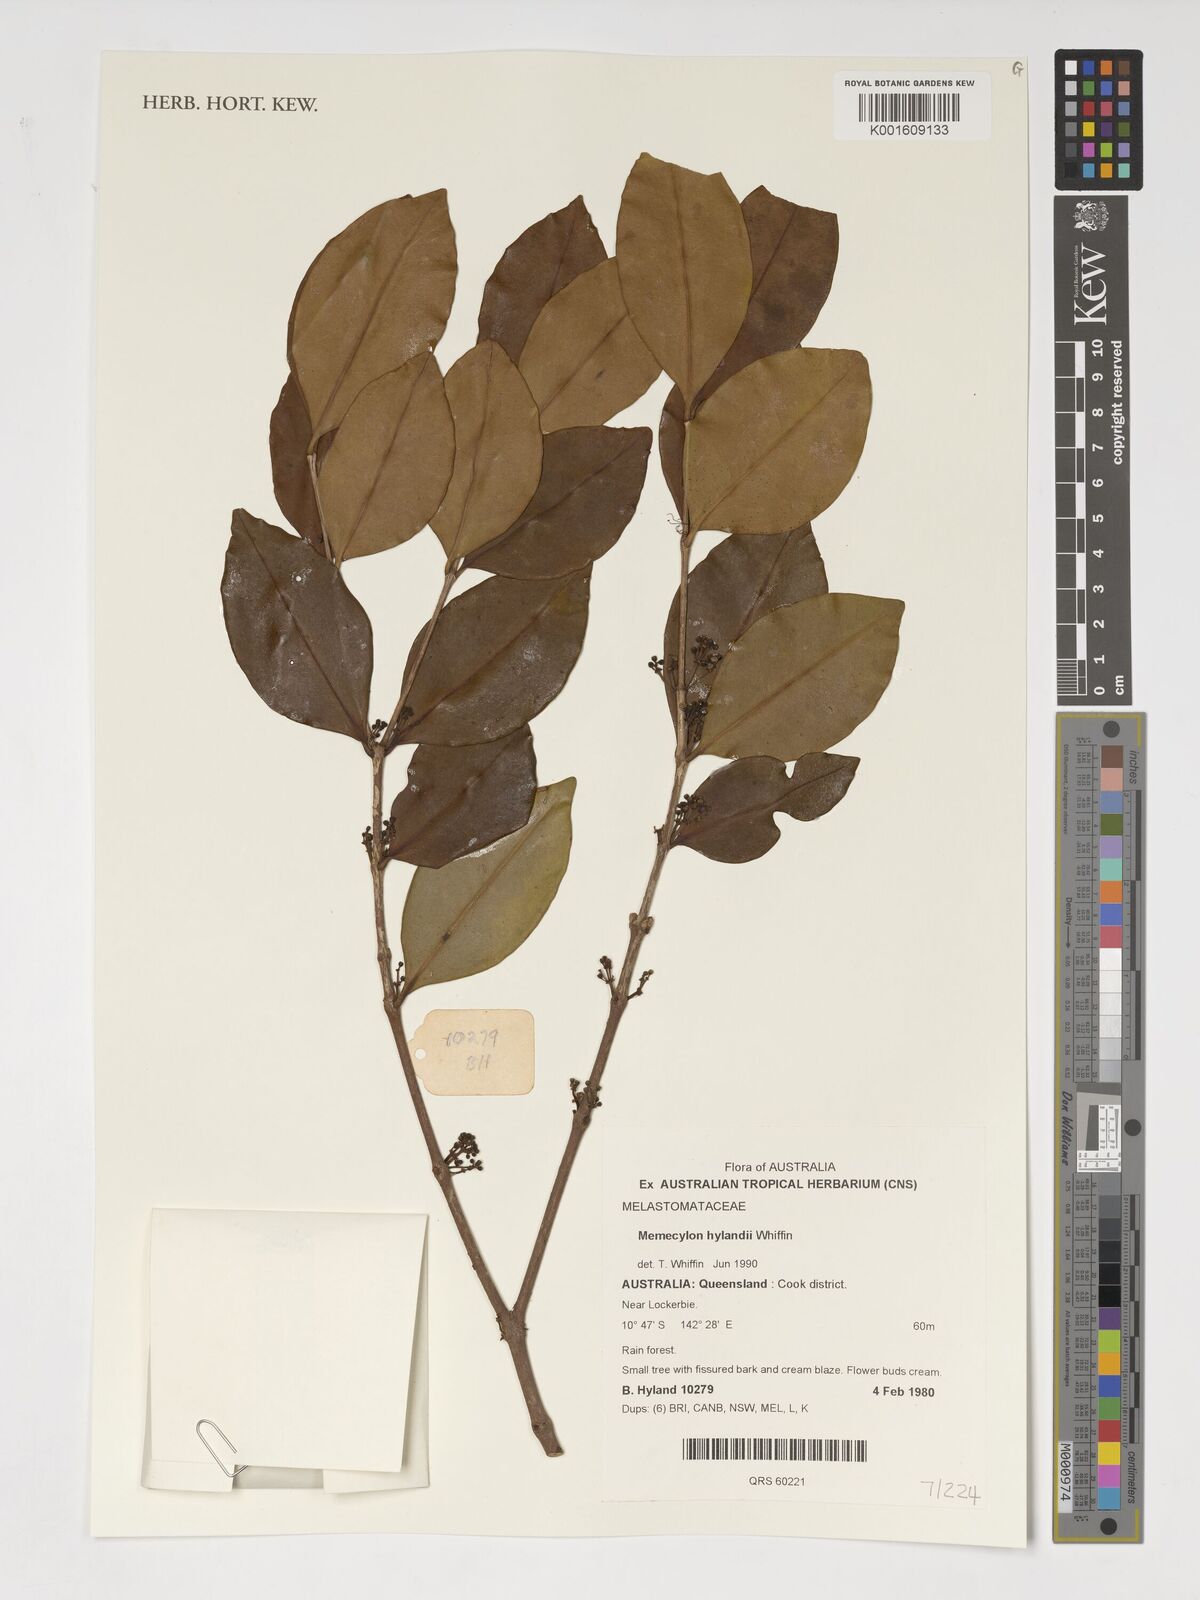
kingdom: Plantae
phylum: Tracheophyta
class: Magnoliopsida
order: Myrtales
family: Melastomataceae
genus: Memecylon
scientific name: Memecylon hylandii
